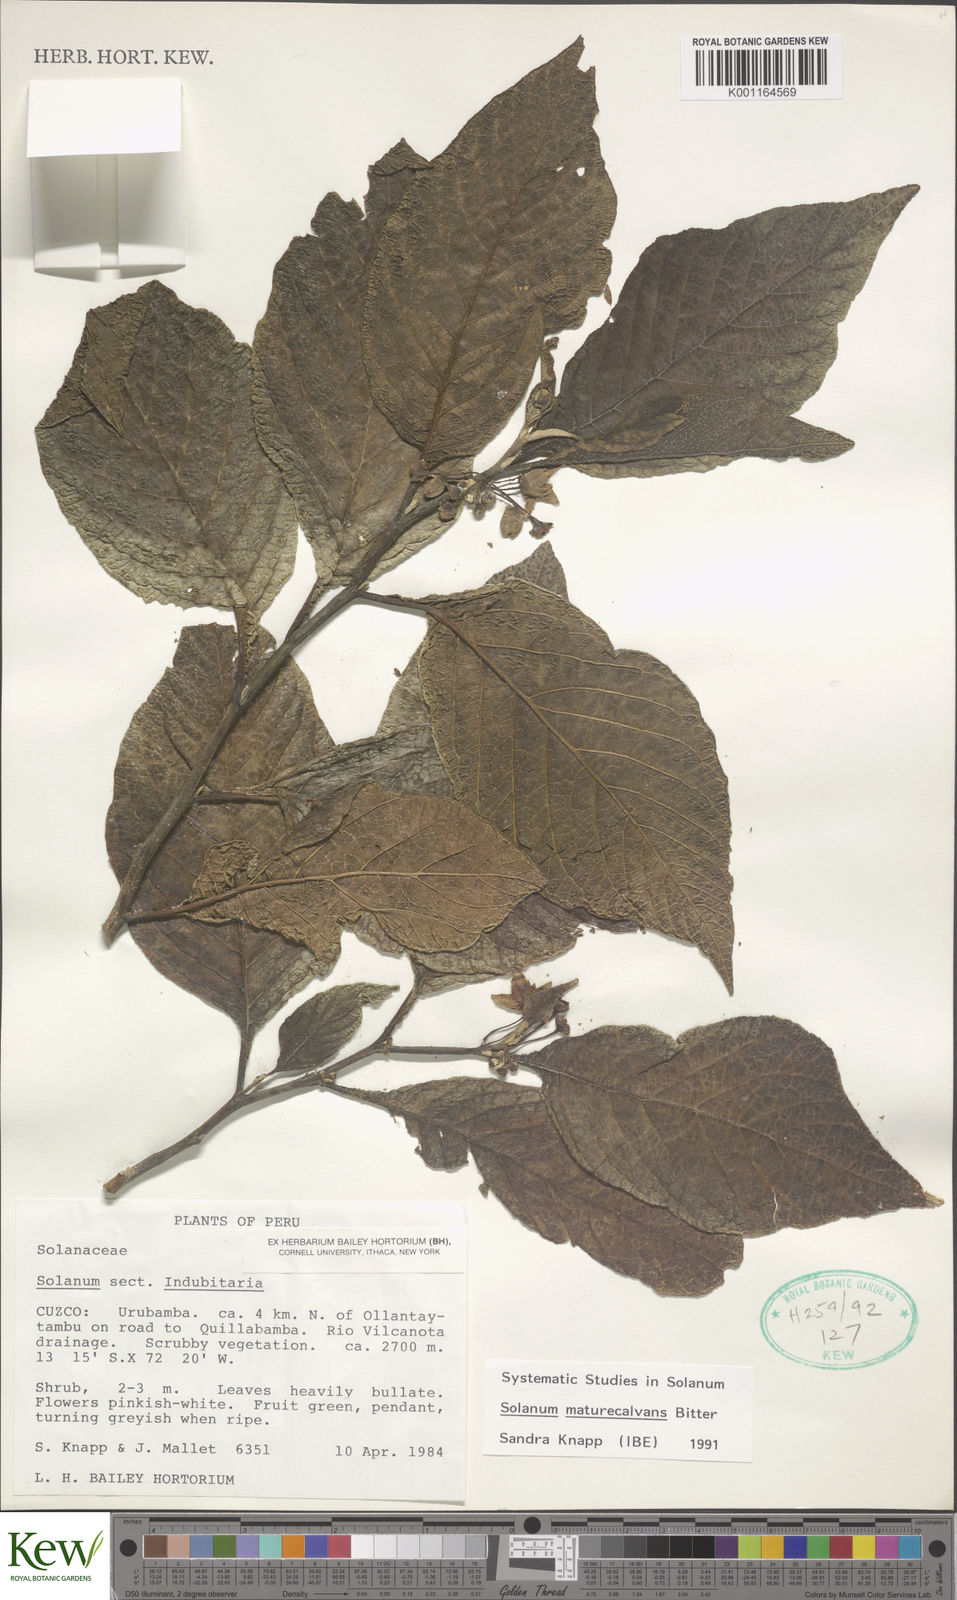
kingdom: Plantae
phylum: Tracheophyta
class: Magnoliopsida
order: Solanales
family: Solanaceae
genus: Solanum
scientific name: Solanum maturecalvans
